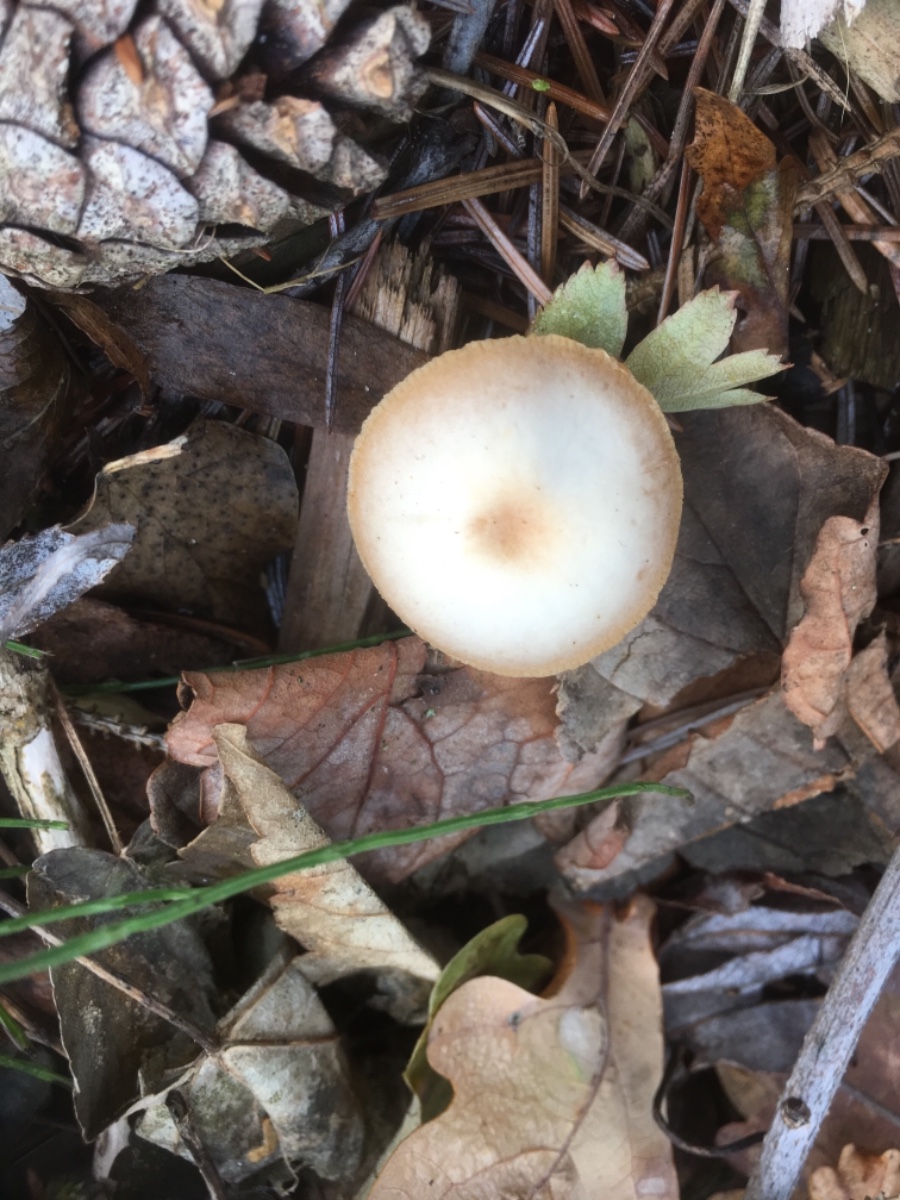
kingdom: Fungi
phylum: Basidiomycota
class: Agaricomycetes
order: Agaricales
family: Tubariaceae
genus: Tubaria
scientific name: Tubaria furfuracea
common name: kliddet fnughat
